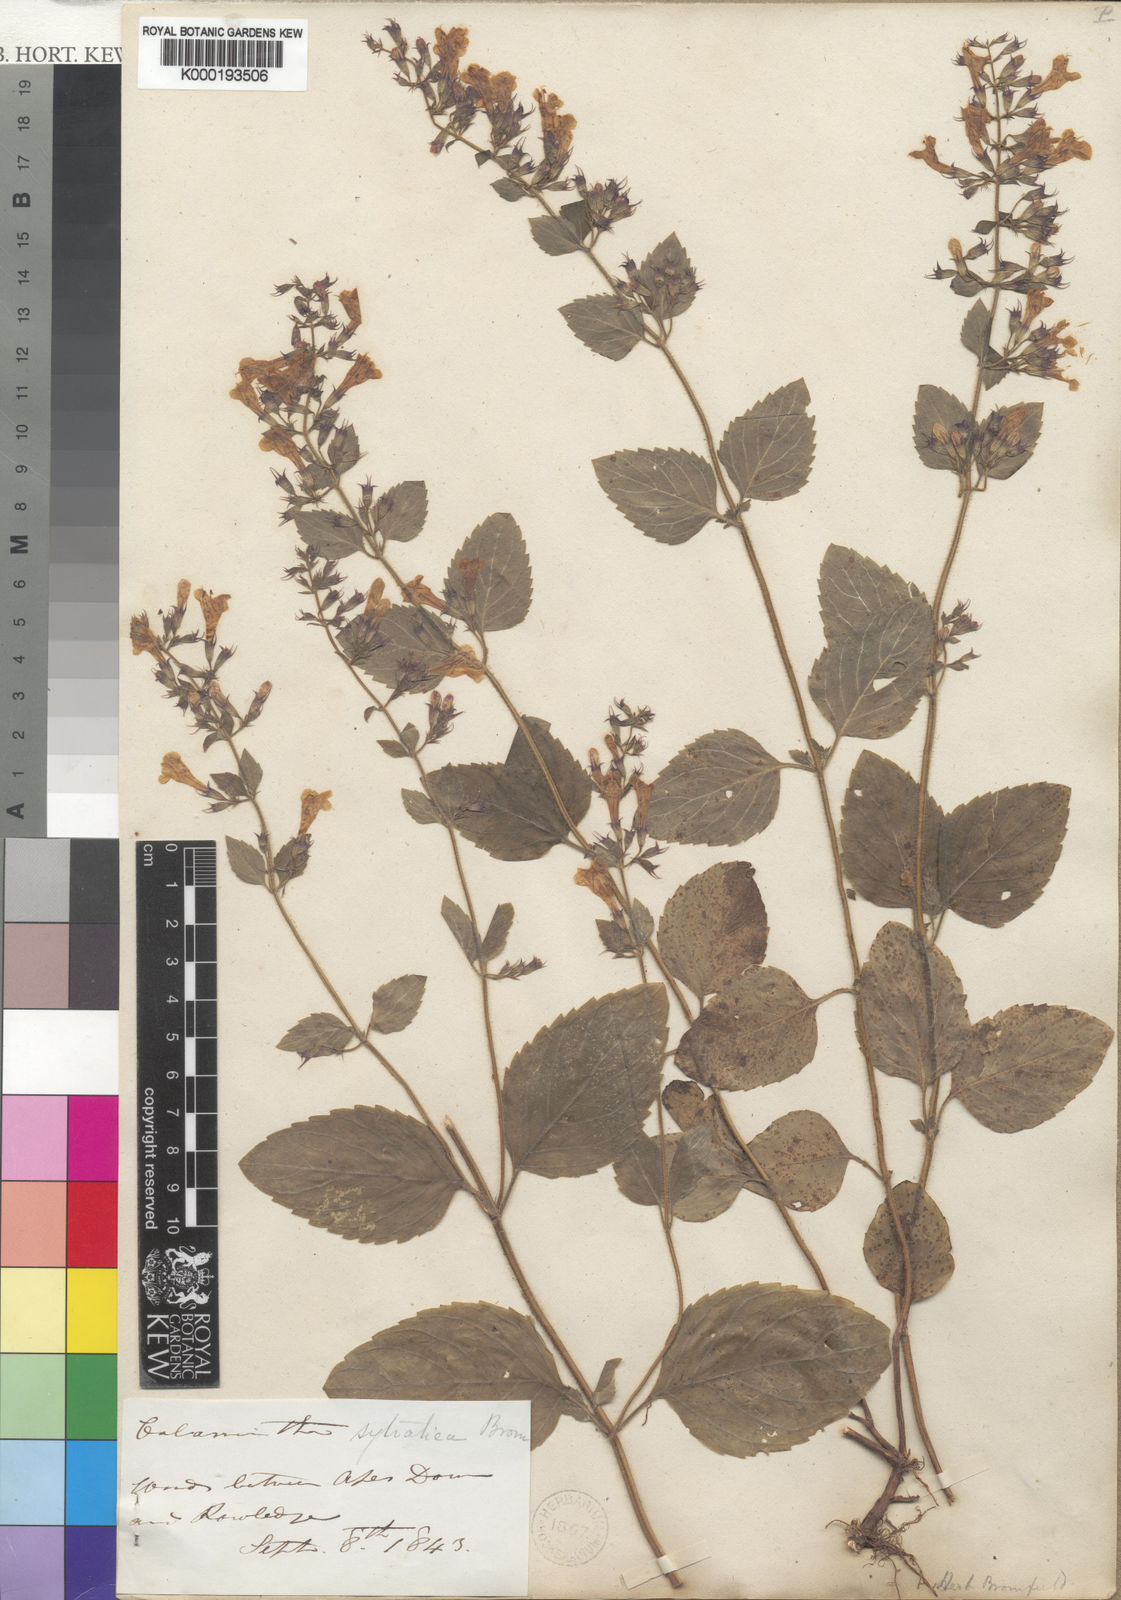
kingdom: Plantae
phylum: Tracheophyta
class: Magnoliopsida
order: Lamiales
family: Lamiaceae
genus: Clinopodium
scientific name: Clinopodium menthifolium
